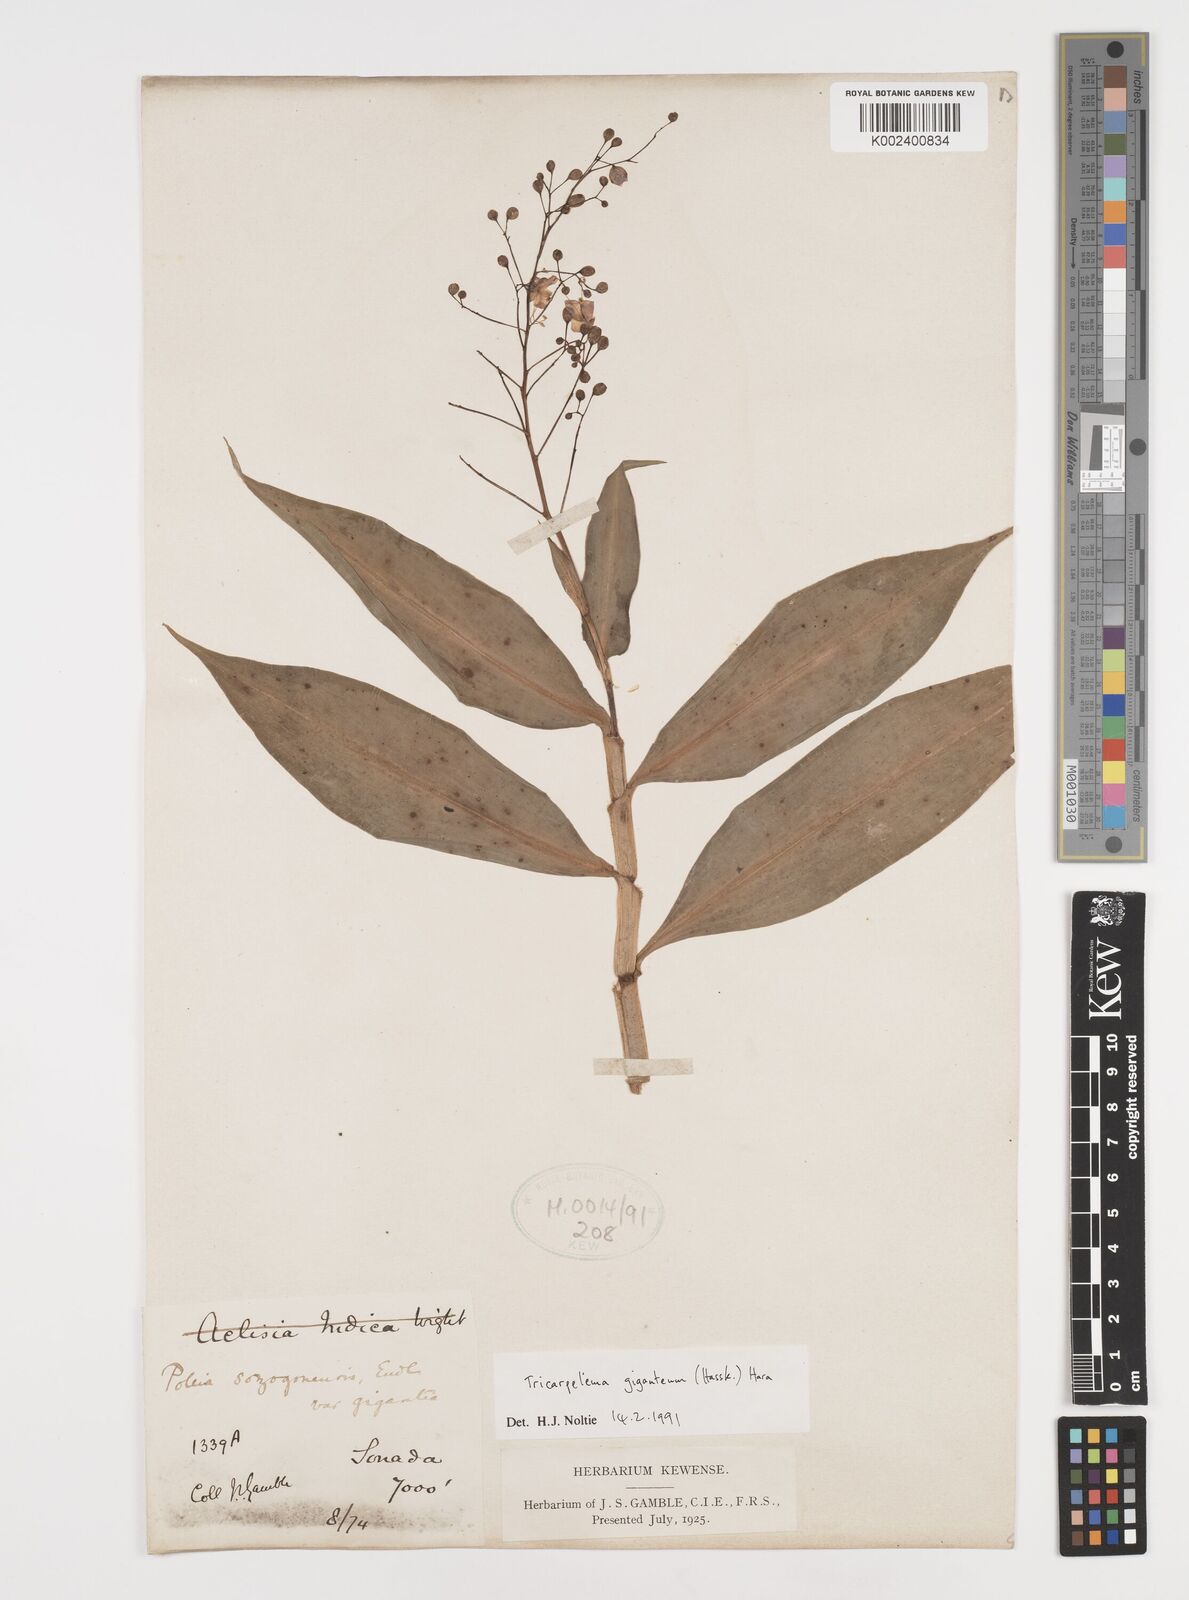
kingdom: Plantae
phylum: Tracheophyta
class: Liliopsida
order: Commelinales
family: Commelinaceae
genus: Tricarpelema
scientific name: Tricarpelema giganteum
